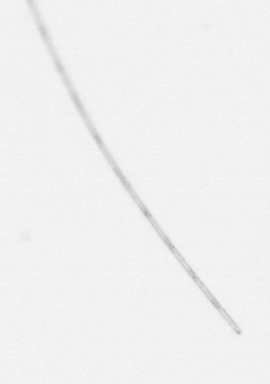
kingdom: Chromista
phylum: Ochrophyta
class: Bacillariophyceae
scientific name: Bacillariophyceae
